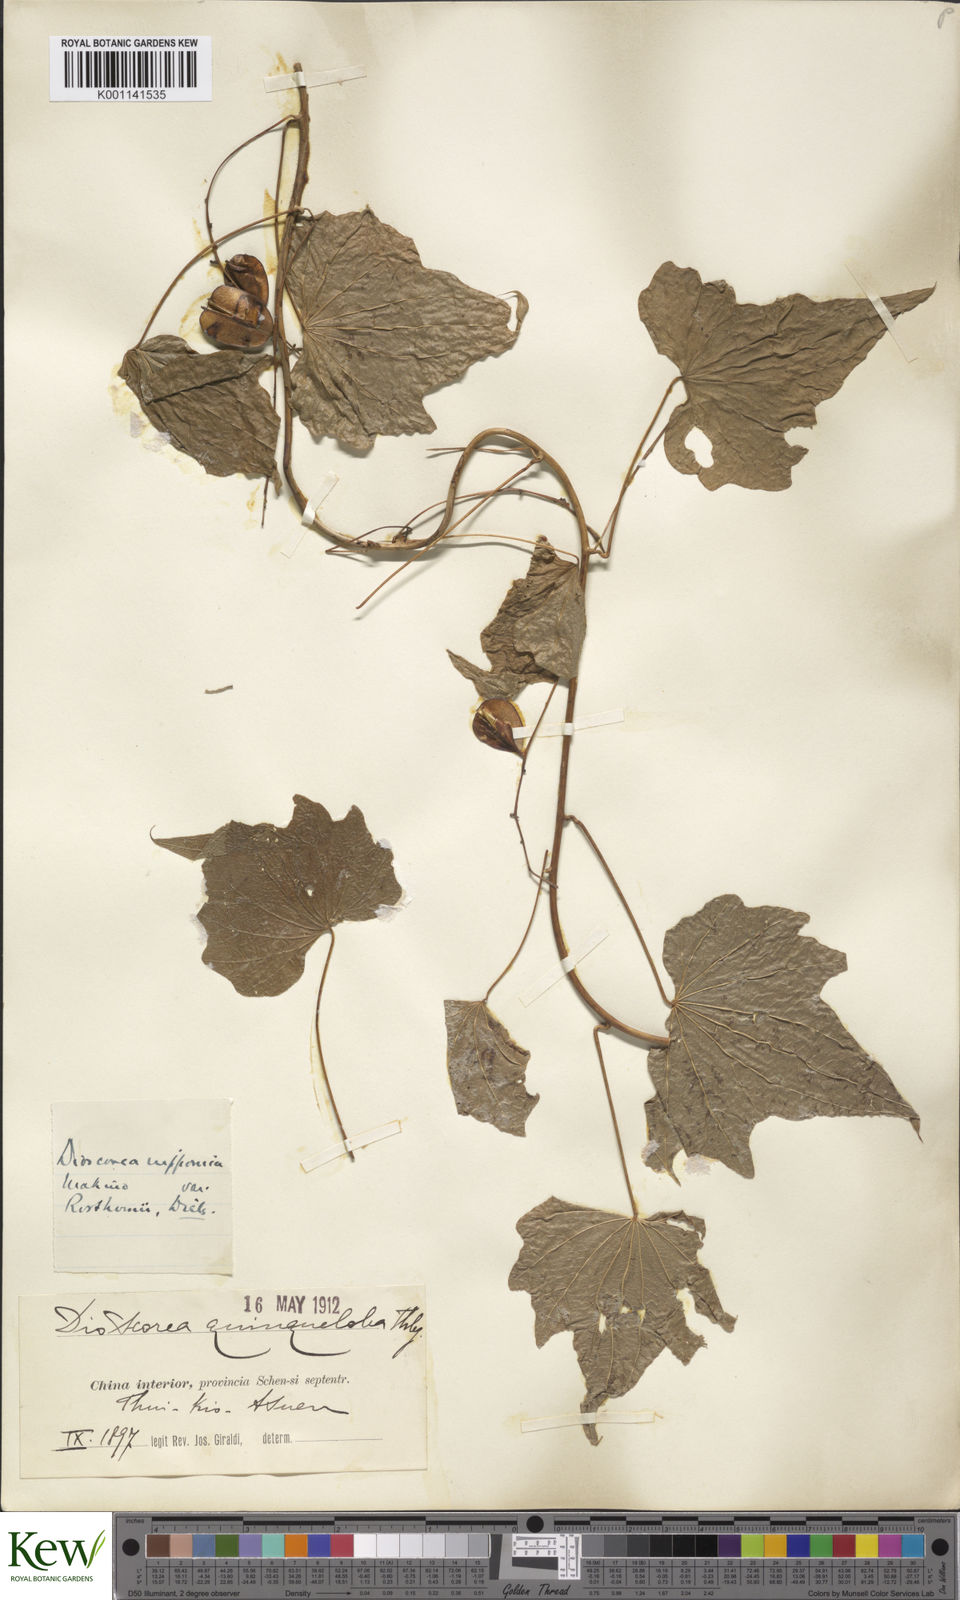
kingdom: Plantae
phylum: Tracheophyta
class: Liliopsida
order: Dioscoreales
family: Dioscoreaceae
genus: Dioscorea
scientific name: Dioscorea nipponica
